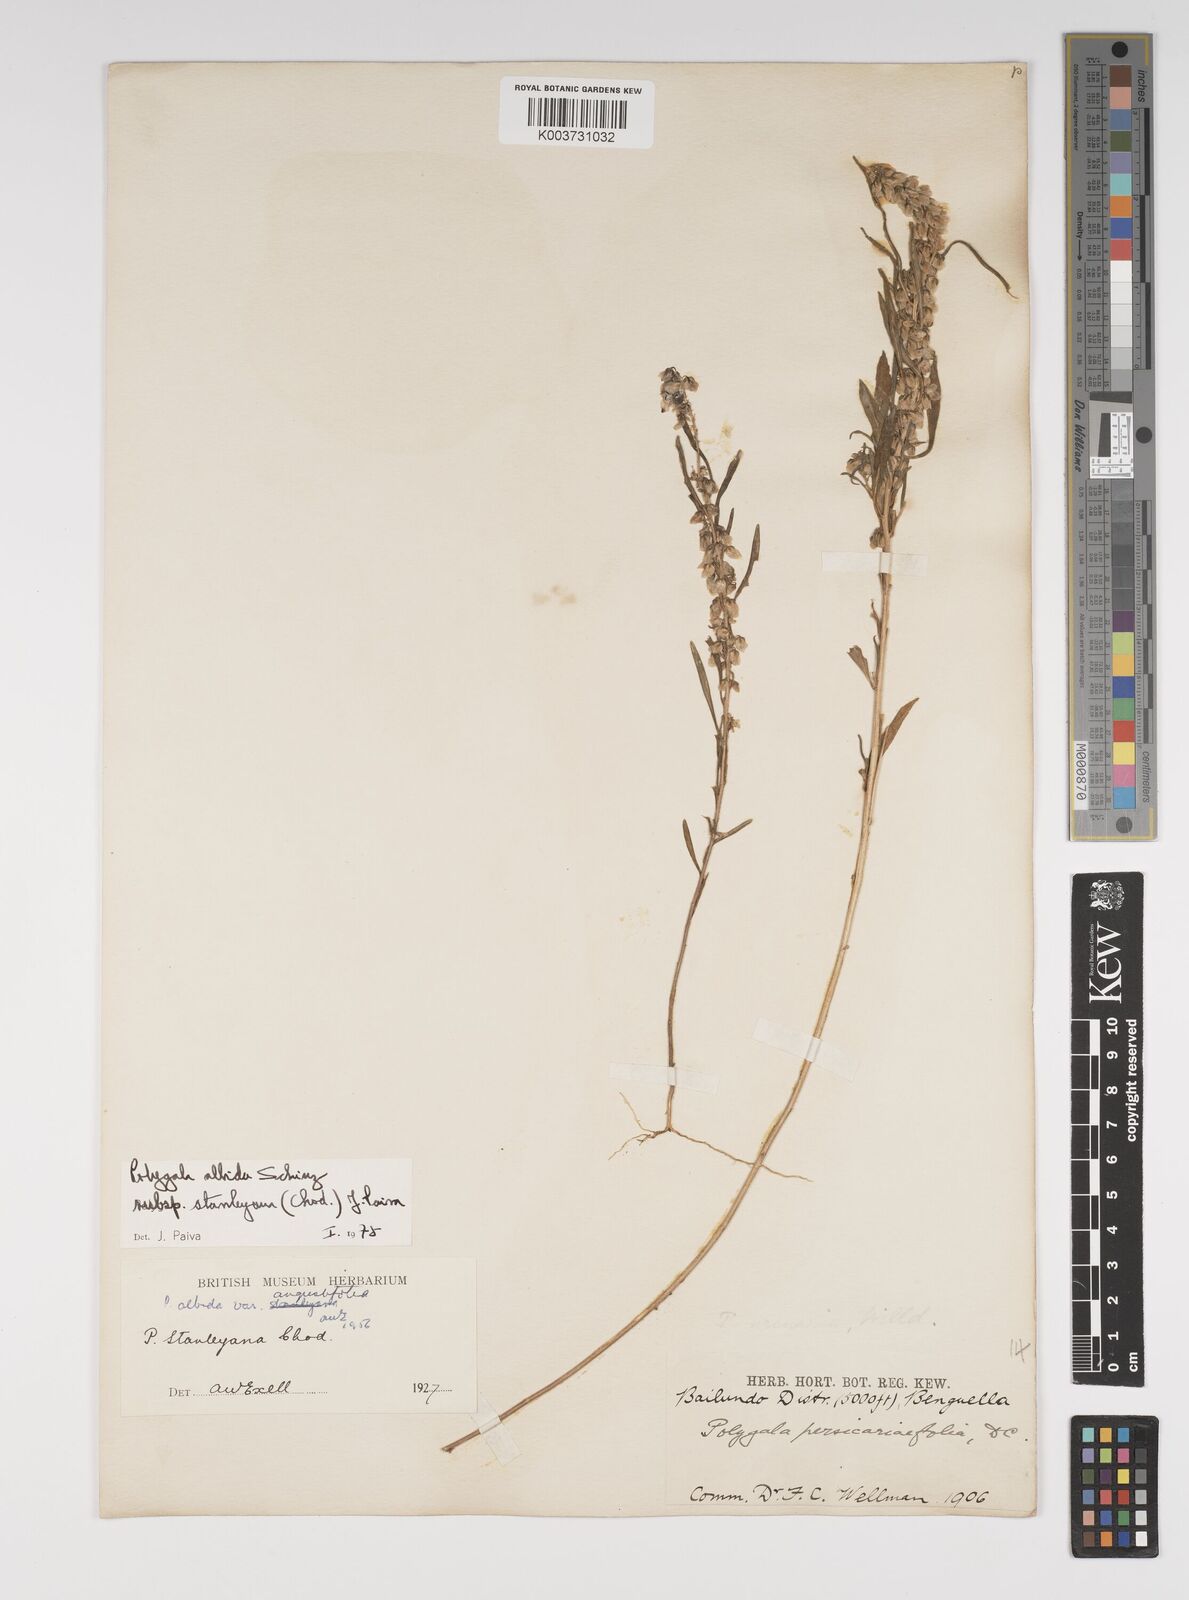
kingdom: Plantae
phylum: Tracheophyta
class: Magnoliopsida
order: Fabales
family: Polygalaceae
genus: Polygala
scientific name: Polygala albida
